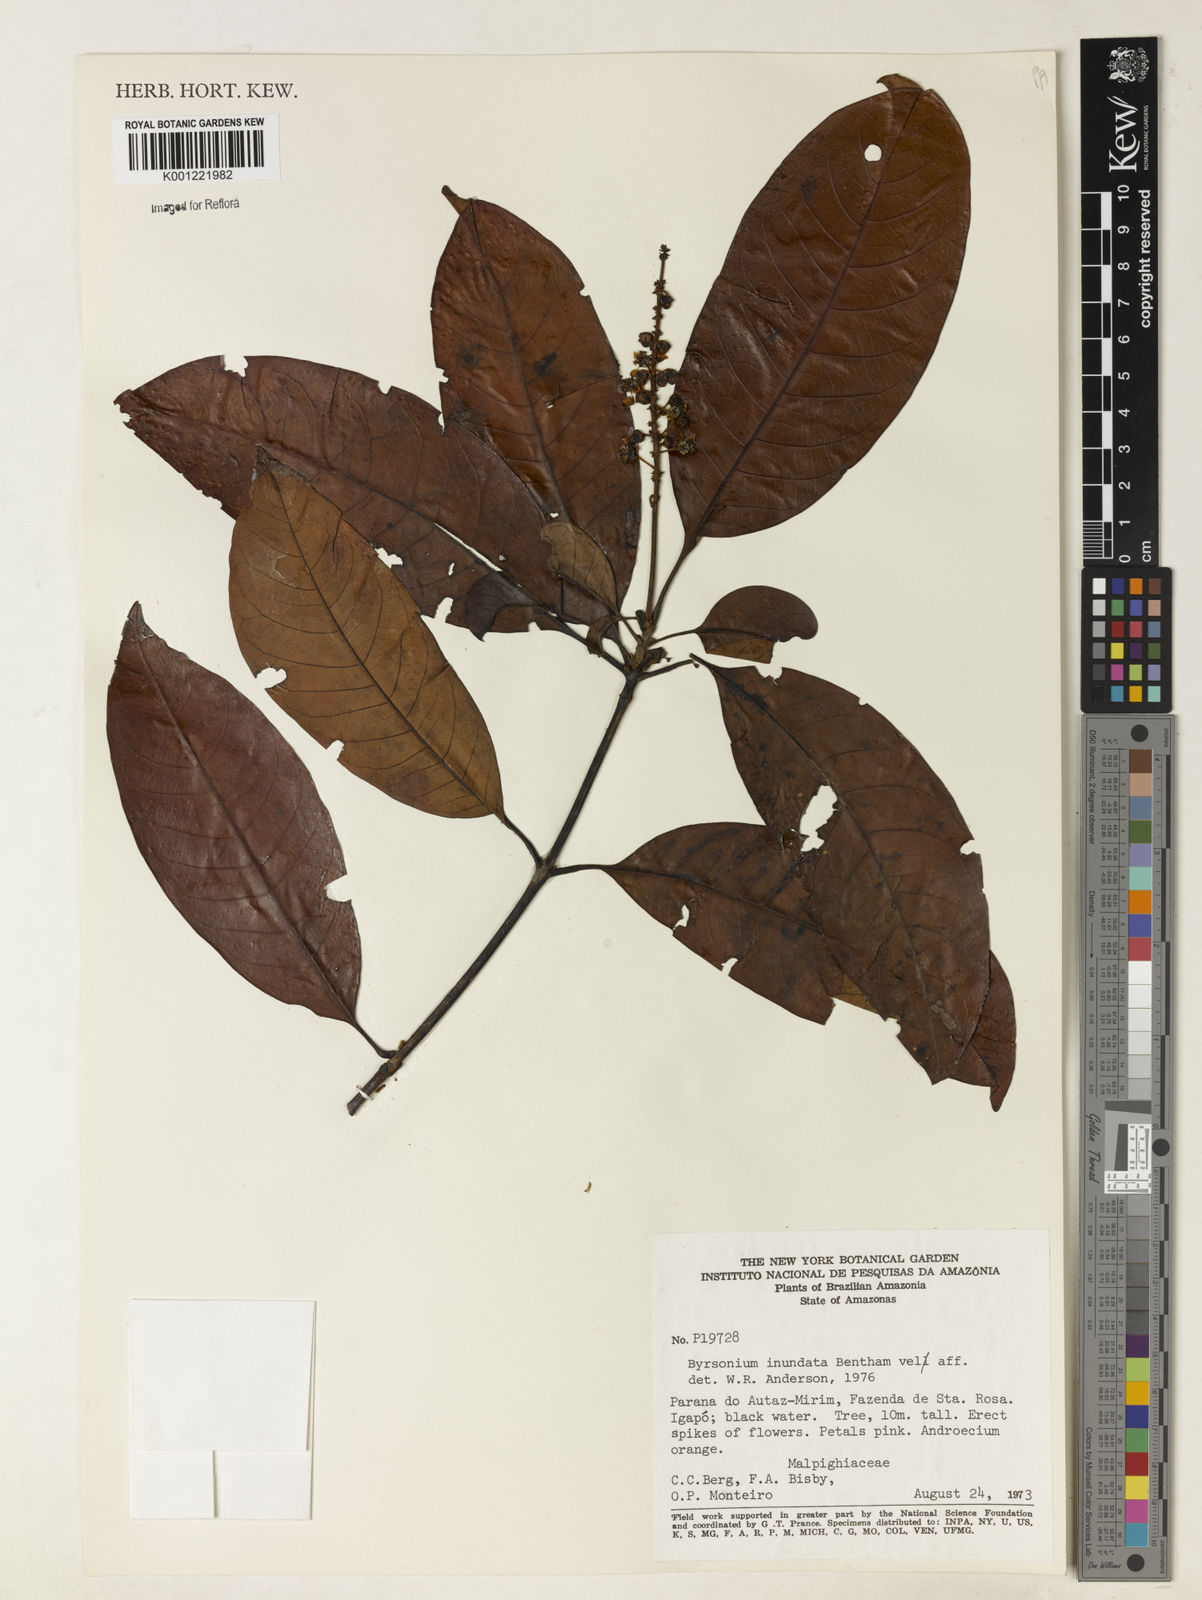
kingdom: Plantae
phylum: Tracheophyta
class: Magnoliopsida
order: Malpighiales
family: Malpighiaceae
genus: Byrsonima
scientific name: Byrsonima japurensis
